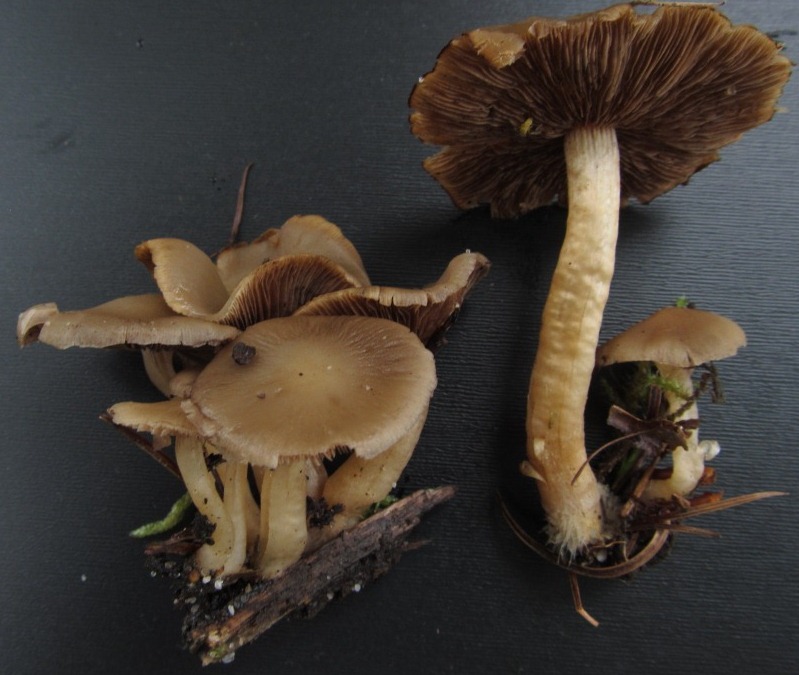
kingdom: Fungi
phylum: Basidiomycota
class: Agaricomycetes
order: Agaricales
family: Psathyrellaceae
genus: Psathyrella
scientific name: Psathyrella piluliformis
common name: lysstokket mørkhat
